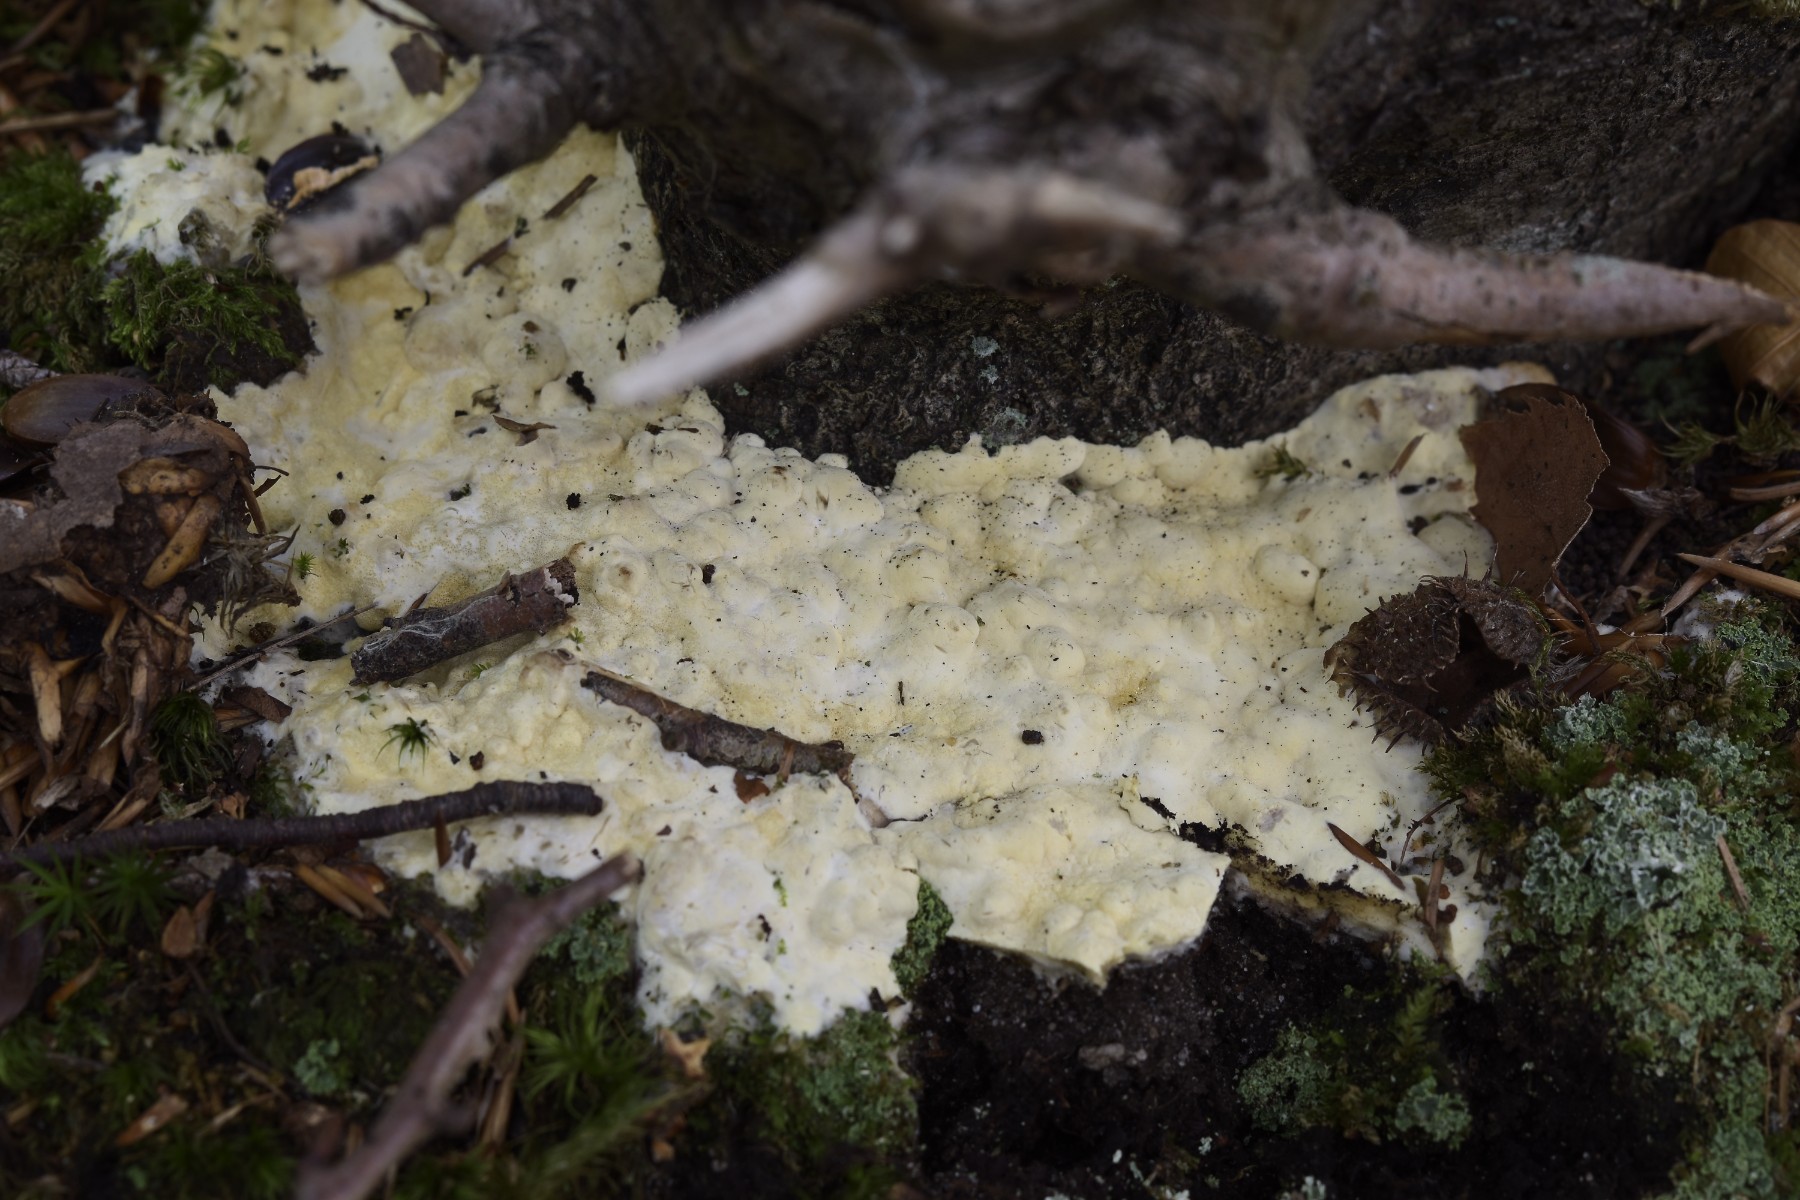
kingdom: Fungi
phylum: Ascomycota
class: Sordariomycetes
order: Hypocreales
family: Hypocreaceae
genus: Trichoderma
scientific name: Trichoderma citrinum
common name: udbredt kødkerne
